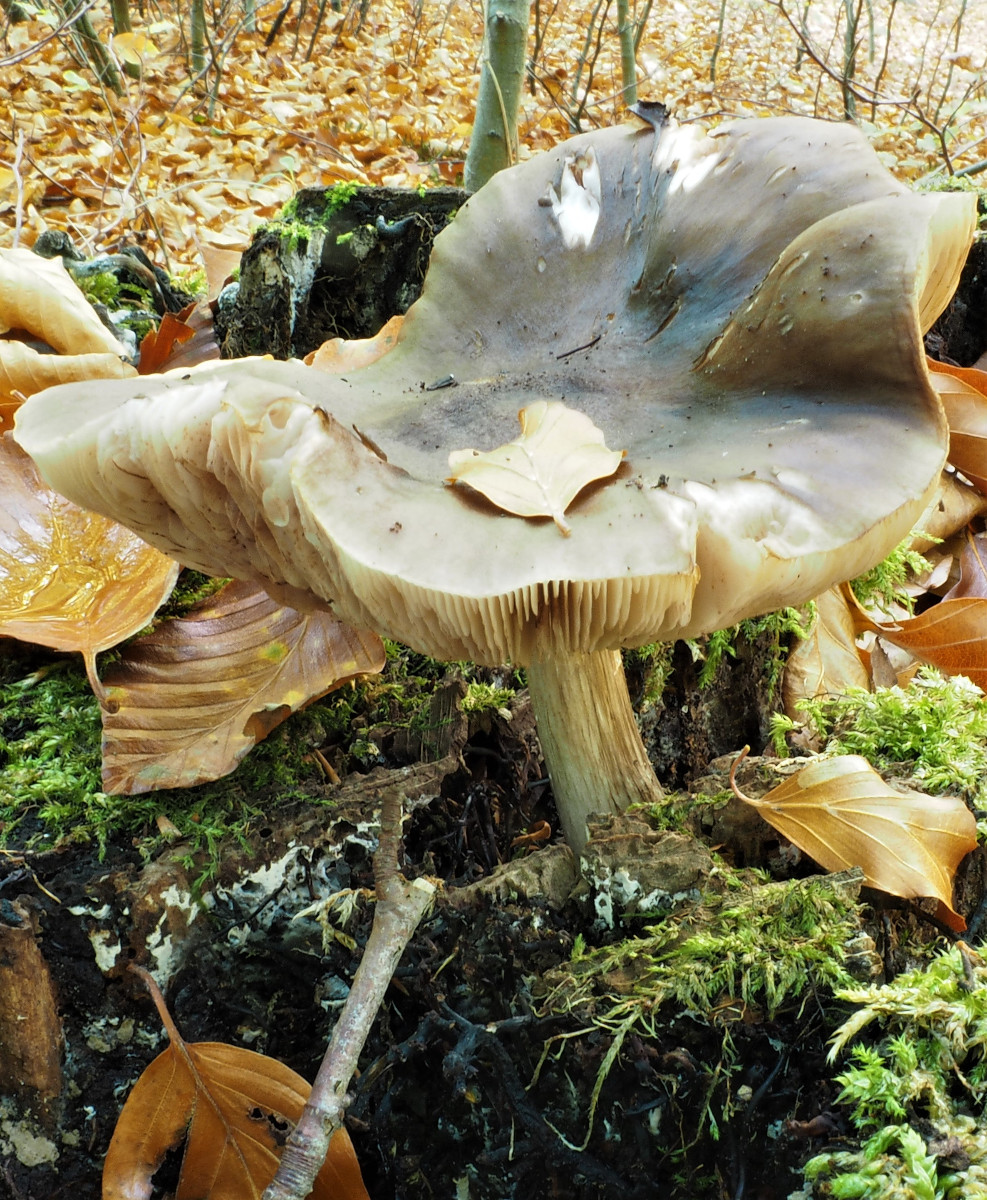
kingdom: Fungi
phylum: Basidiomycota
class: Agaricomycetes
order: Agaricales
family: Pluteaceae
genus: Pluteus
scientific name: Pluteus cervinus
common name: sodfarvet skærmhat
